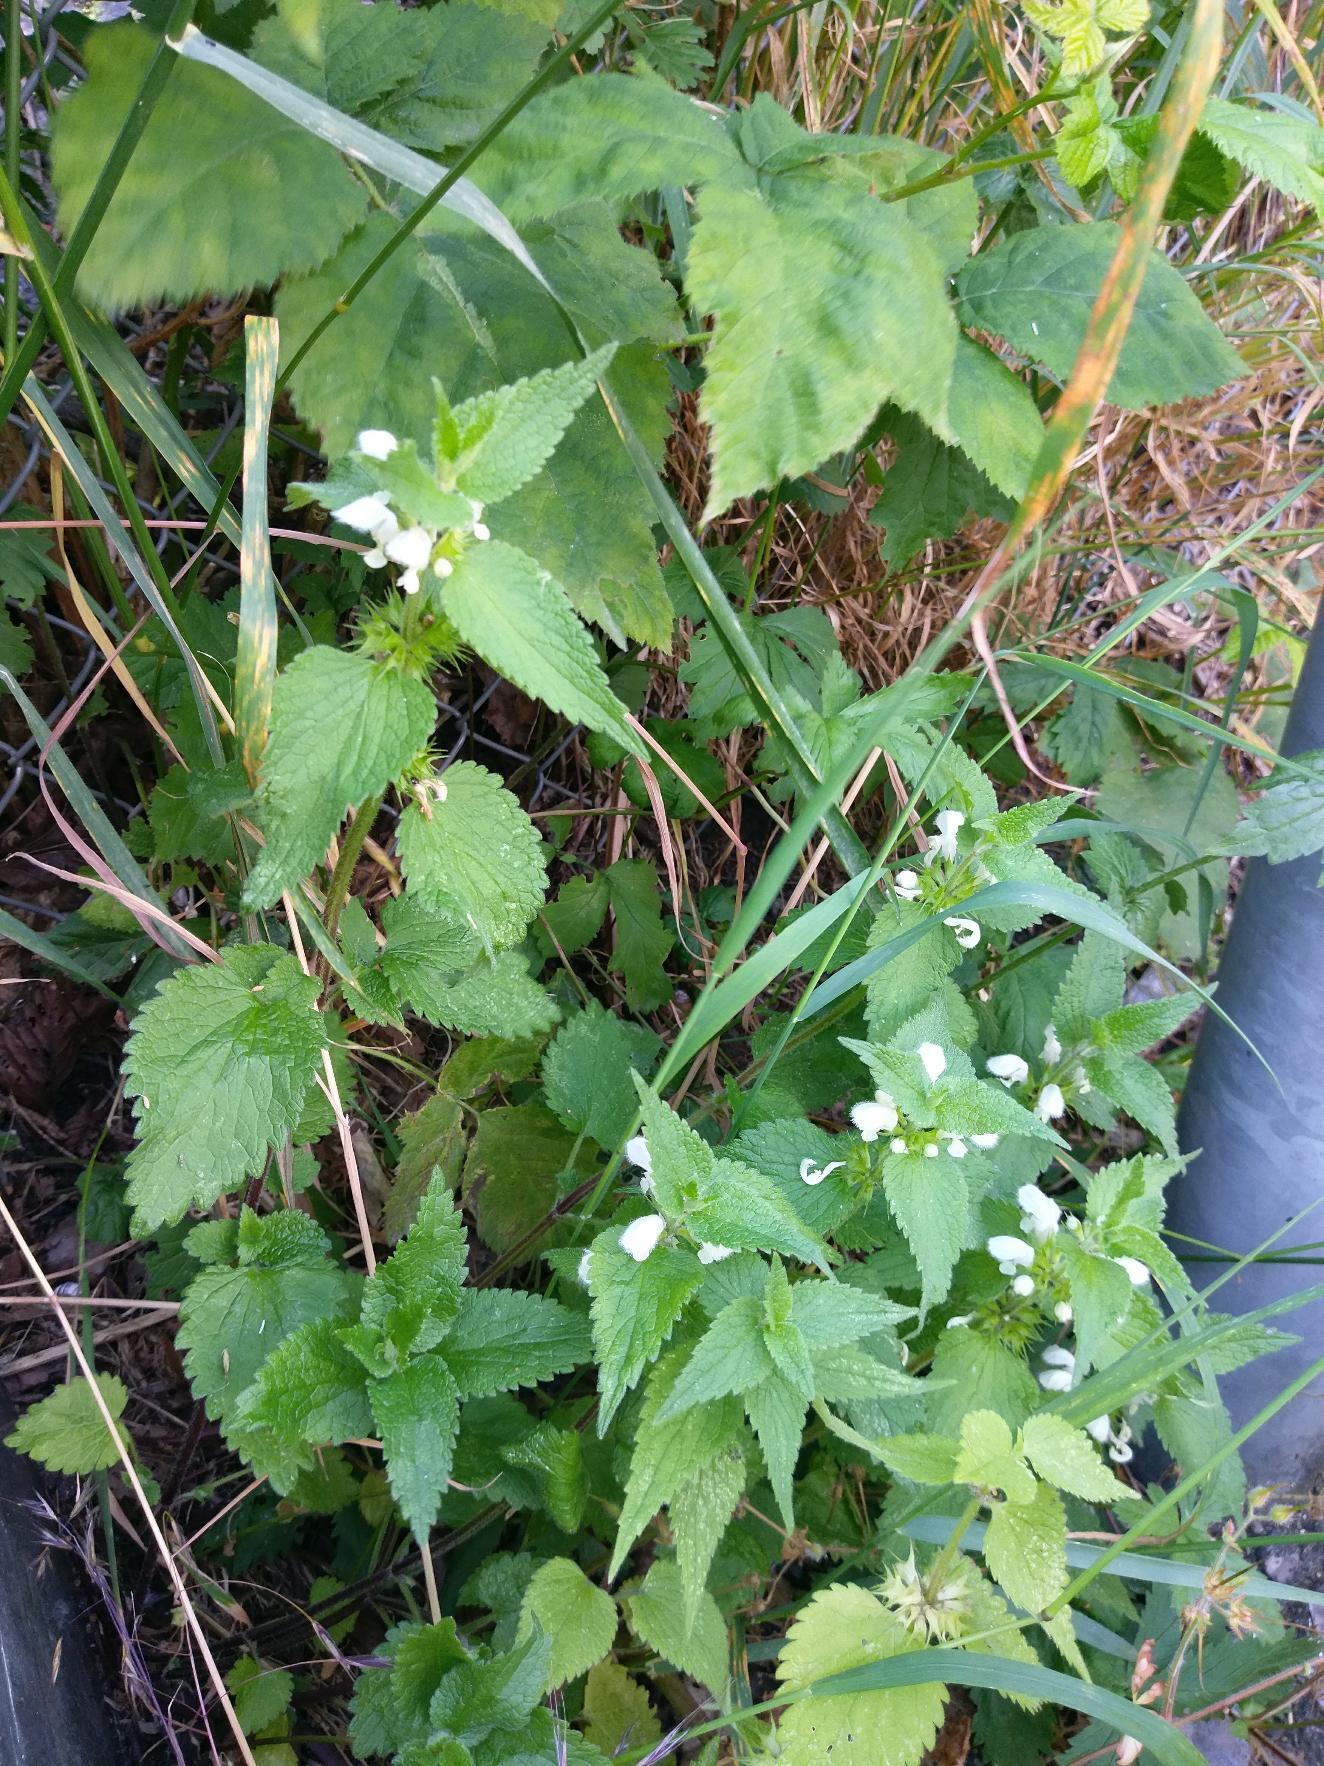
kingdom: Plantae
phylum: Tracheophyta
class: Magnoliopsida
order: Lamiales
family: Lamiaceae
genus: Lamium
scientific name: Lamium album
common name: Døvnælde
